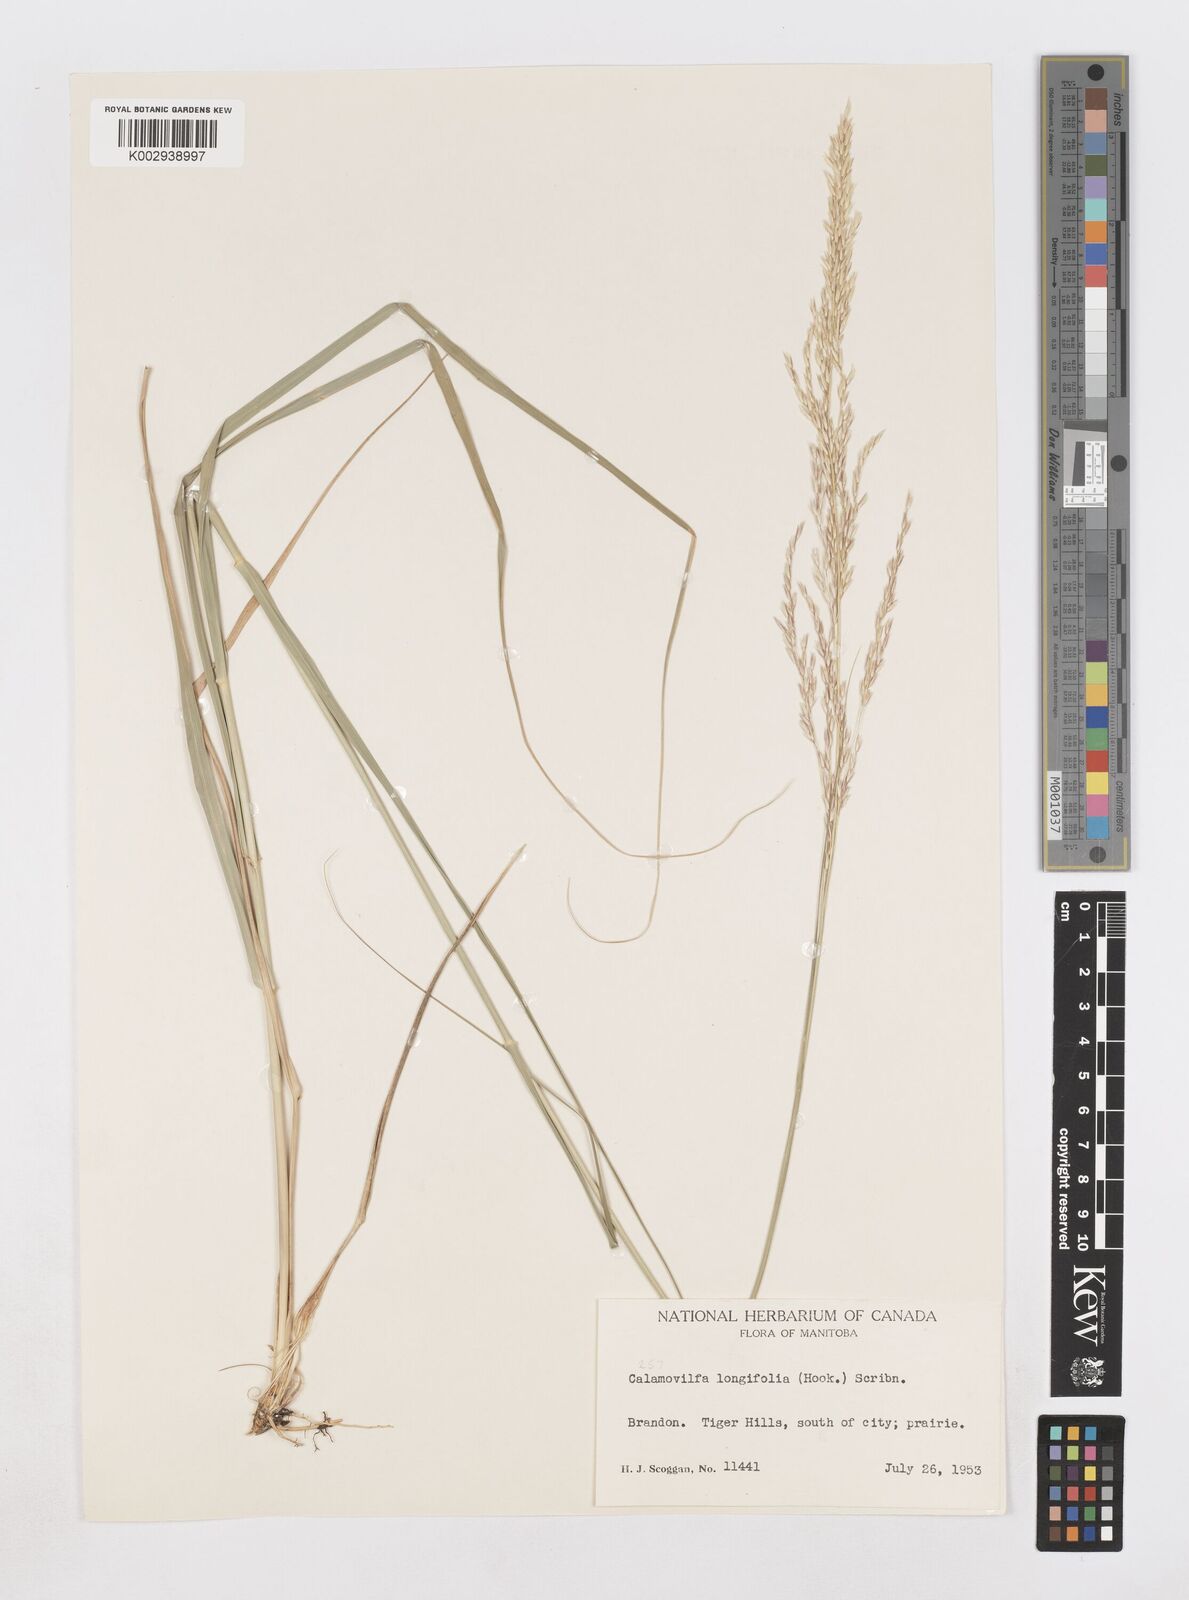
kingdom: Plantae
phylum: Tracheophyta
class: Liliopsida
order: Poales
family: Poaceae
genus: Sporobolus
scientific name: Sporobolus rigidus
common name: Prairie sandreed
